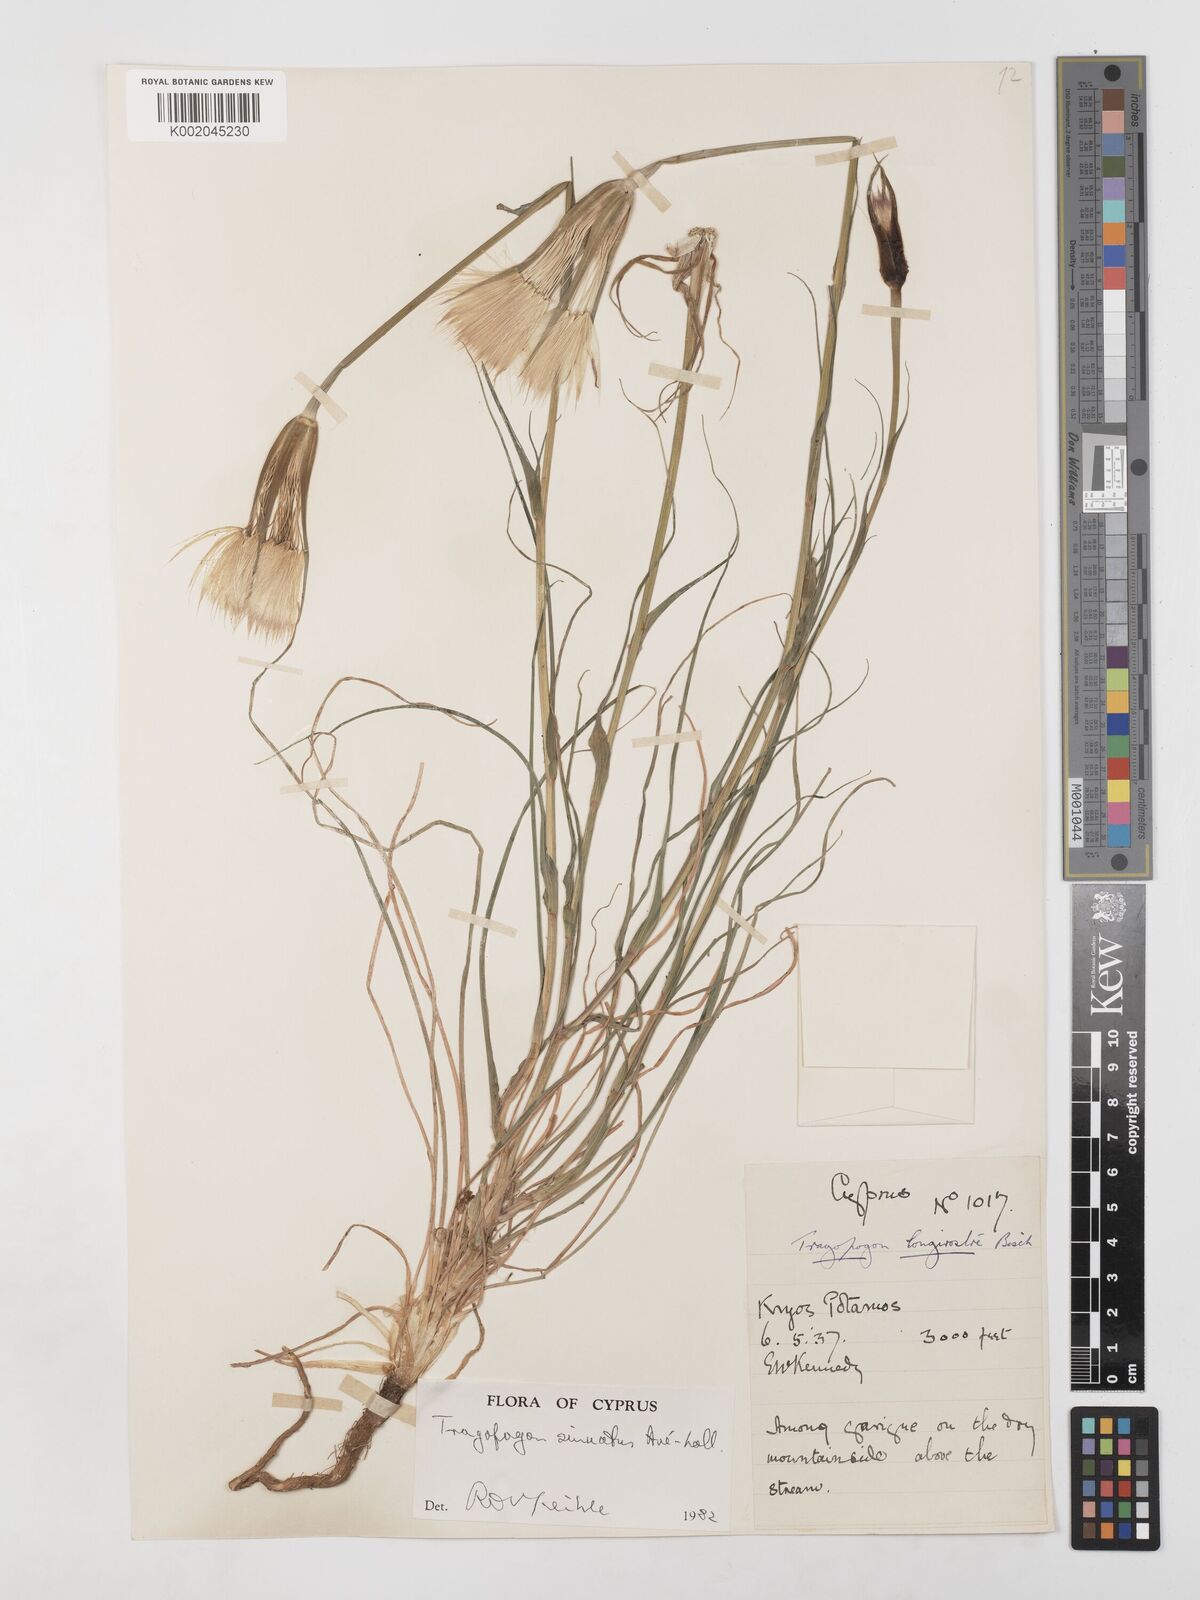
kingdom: Plantae
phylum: Tracheophyta
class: Magnoliopsida
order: Asterales
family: Asteraceae
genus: Tragopogon
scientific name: Tragopogon porrifolius
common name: Salsify
